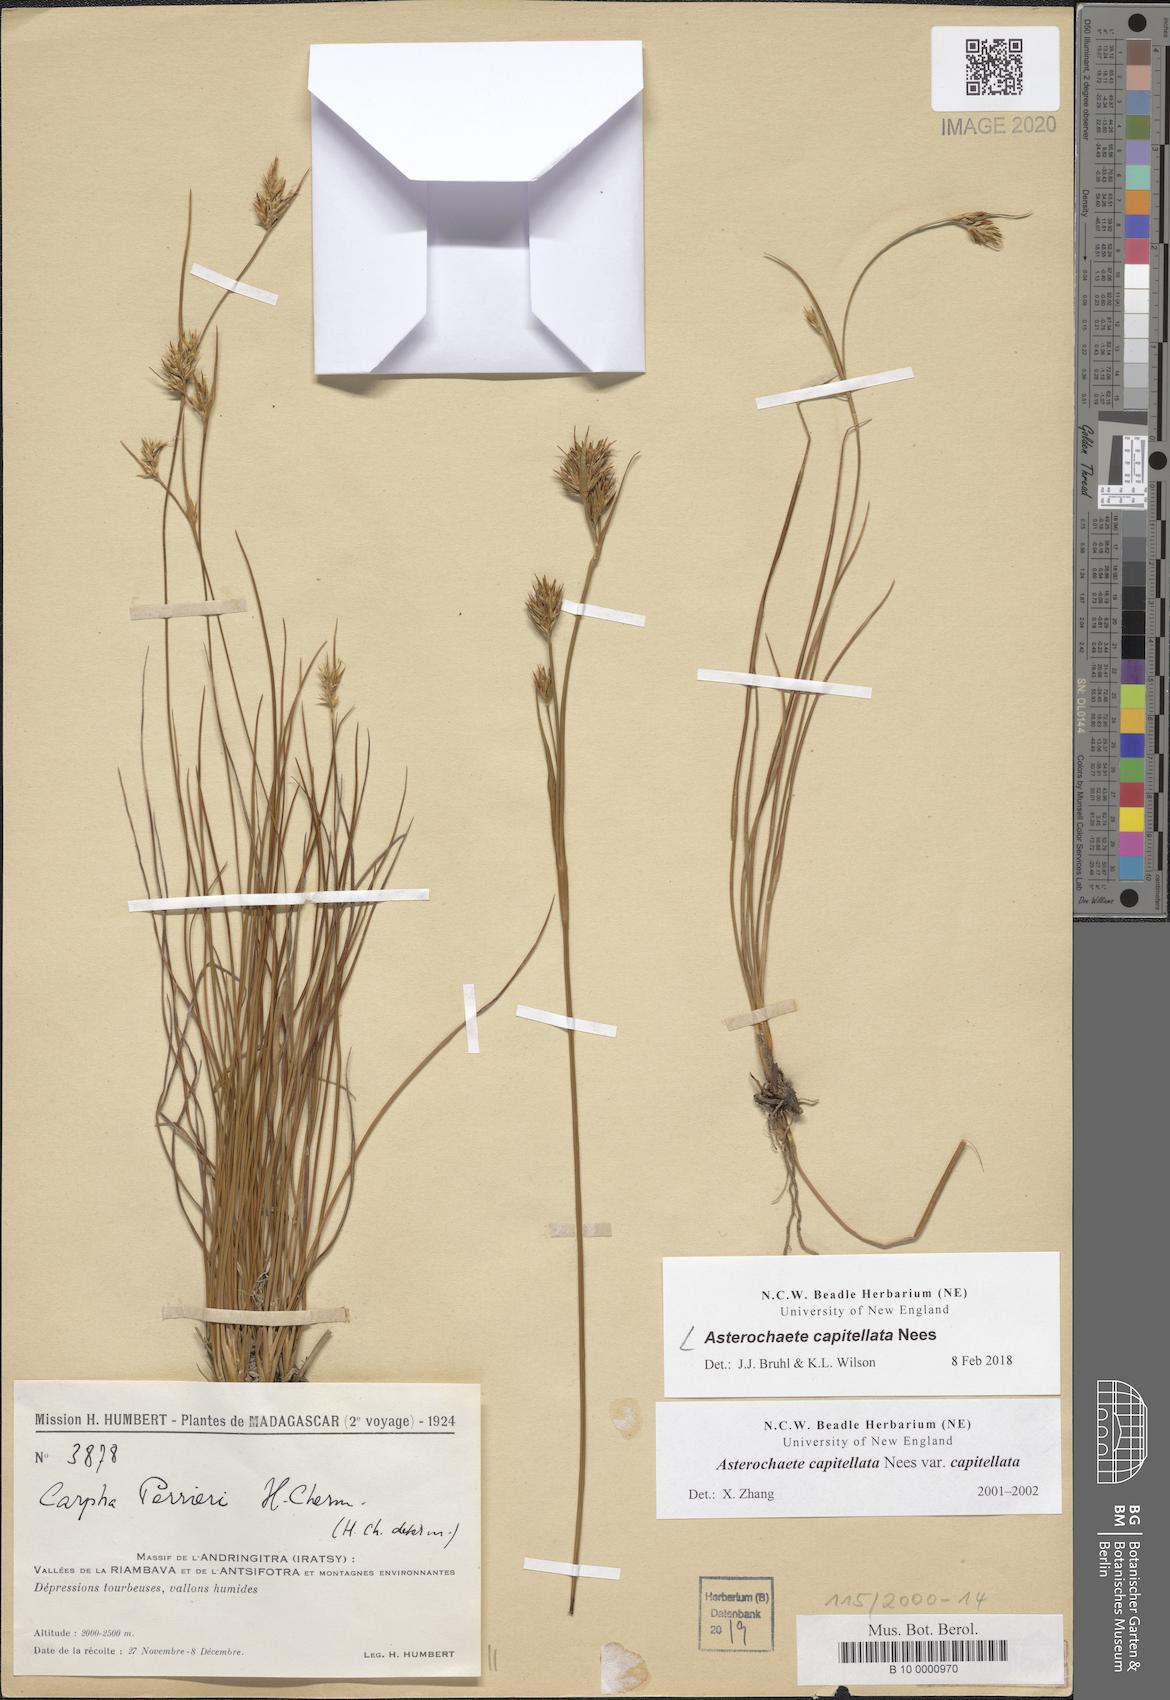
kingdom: Plantae
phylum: Tracheophyta
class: Liliopsida
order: Poales
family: Cyperaceae
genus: Carpha
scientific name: Carpha capitellata
